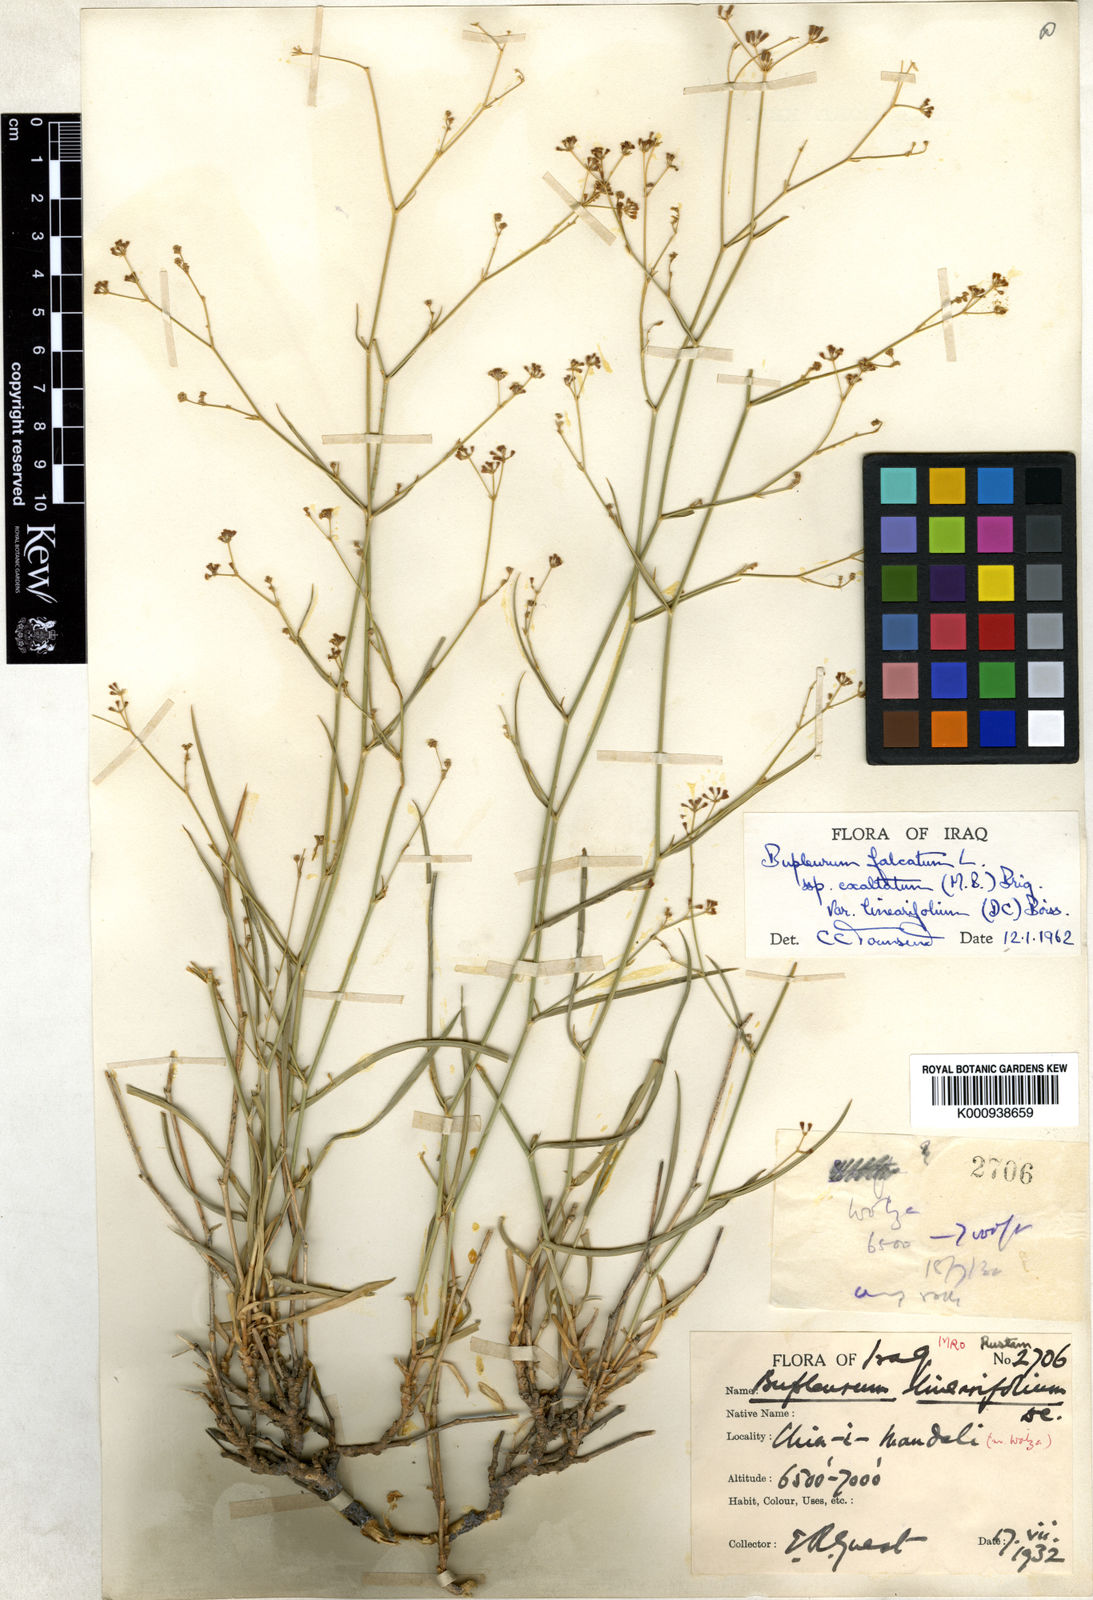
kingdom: Plantae
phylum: Tracheophyta
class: Magnoliopsida
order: Apiales
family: Apiaceae
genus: Bupleurum
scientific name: Bupleurum falcatum
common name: Sickle-leaved hare's-ear
